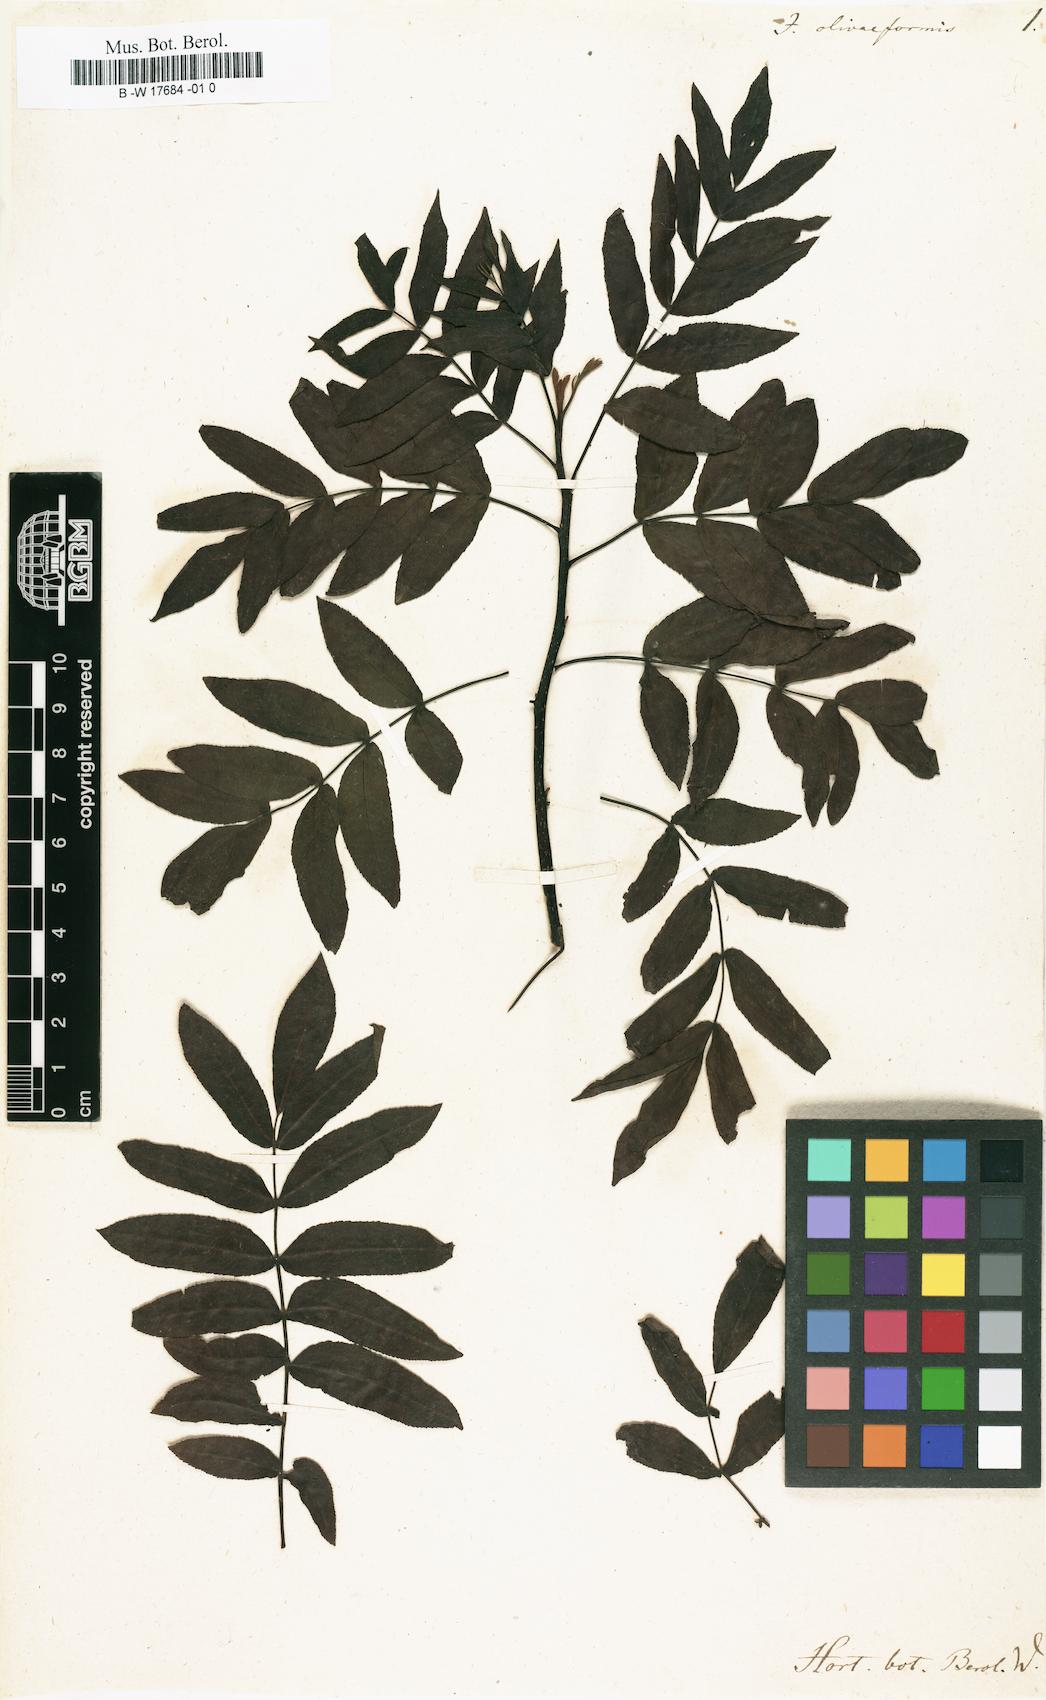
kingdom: Plantae
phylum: Tracheophyta
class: Magnoliopsida
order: Fagales
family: Juglandaceae
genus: Carya
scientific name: Carya illinoinensis
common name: Pecan
